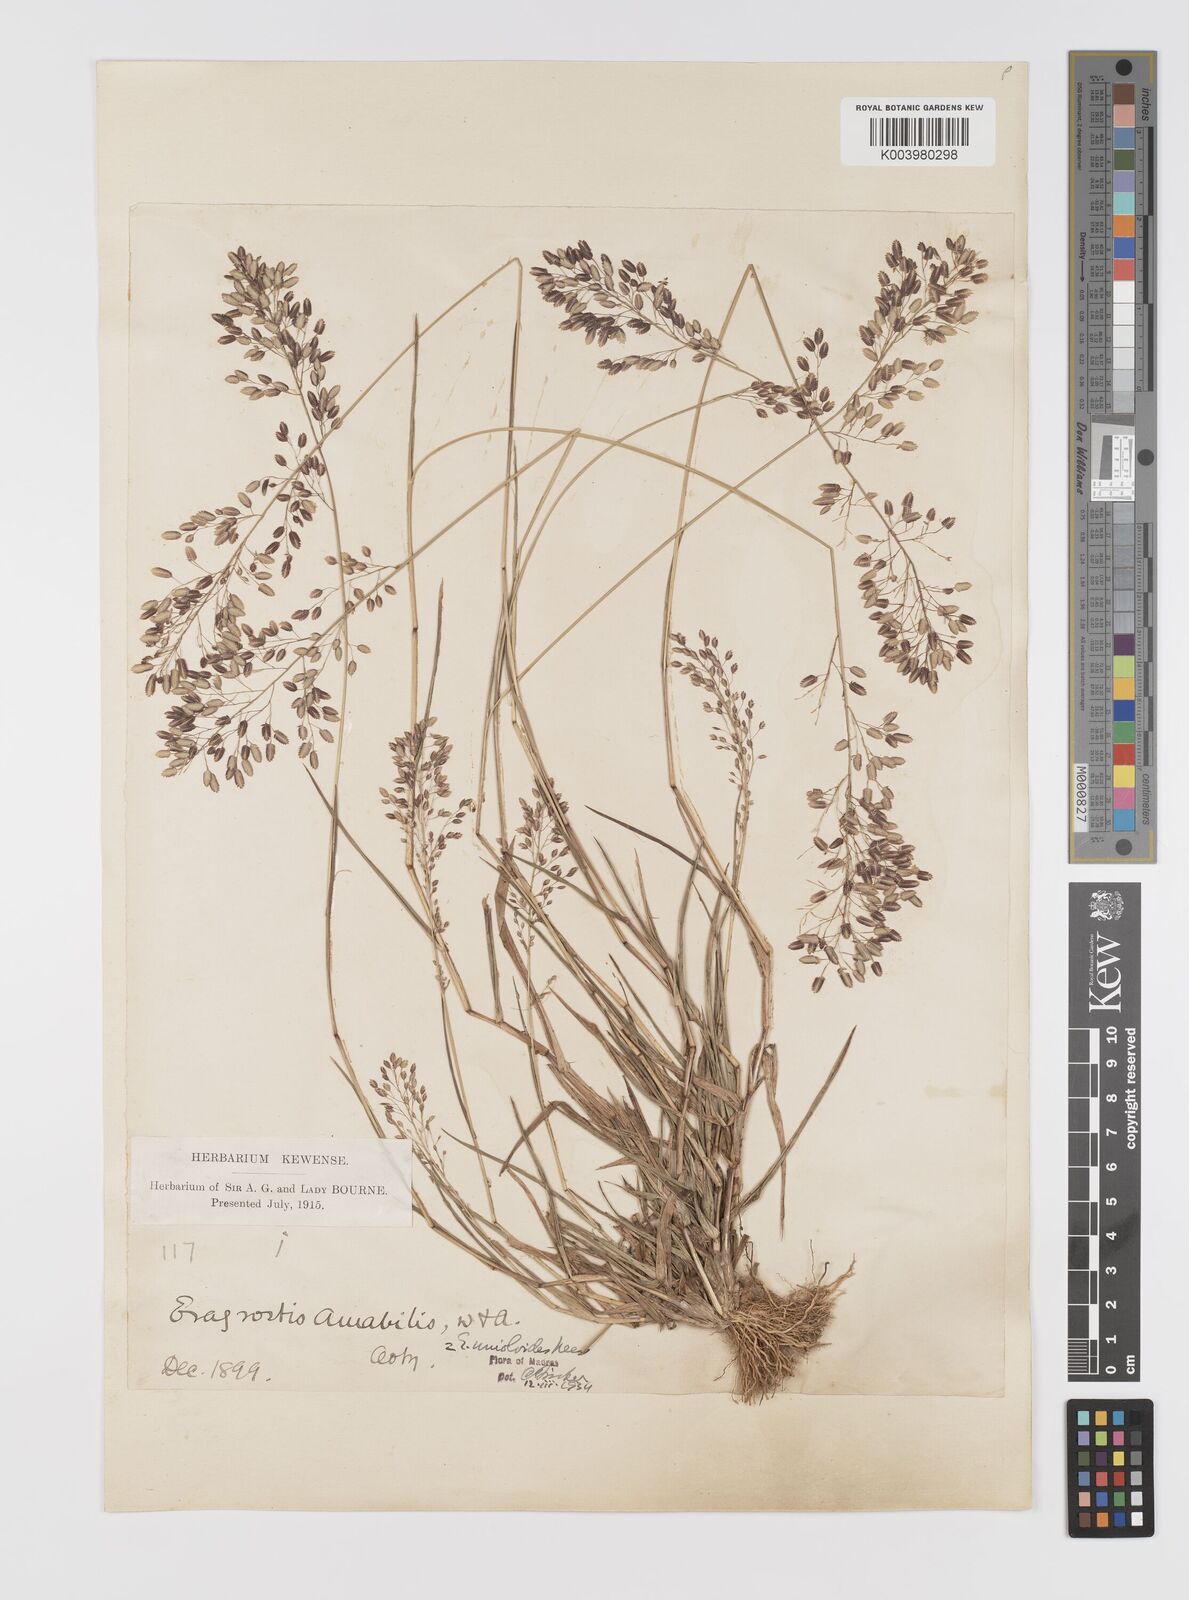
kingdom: Plantae
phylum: Tracheophyta
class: Liliopsida
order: Poales
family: Poaceae
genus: Eragrostis
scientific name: Eragrostis unioloides
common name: Chinese lovegrass
